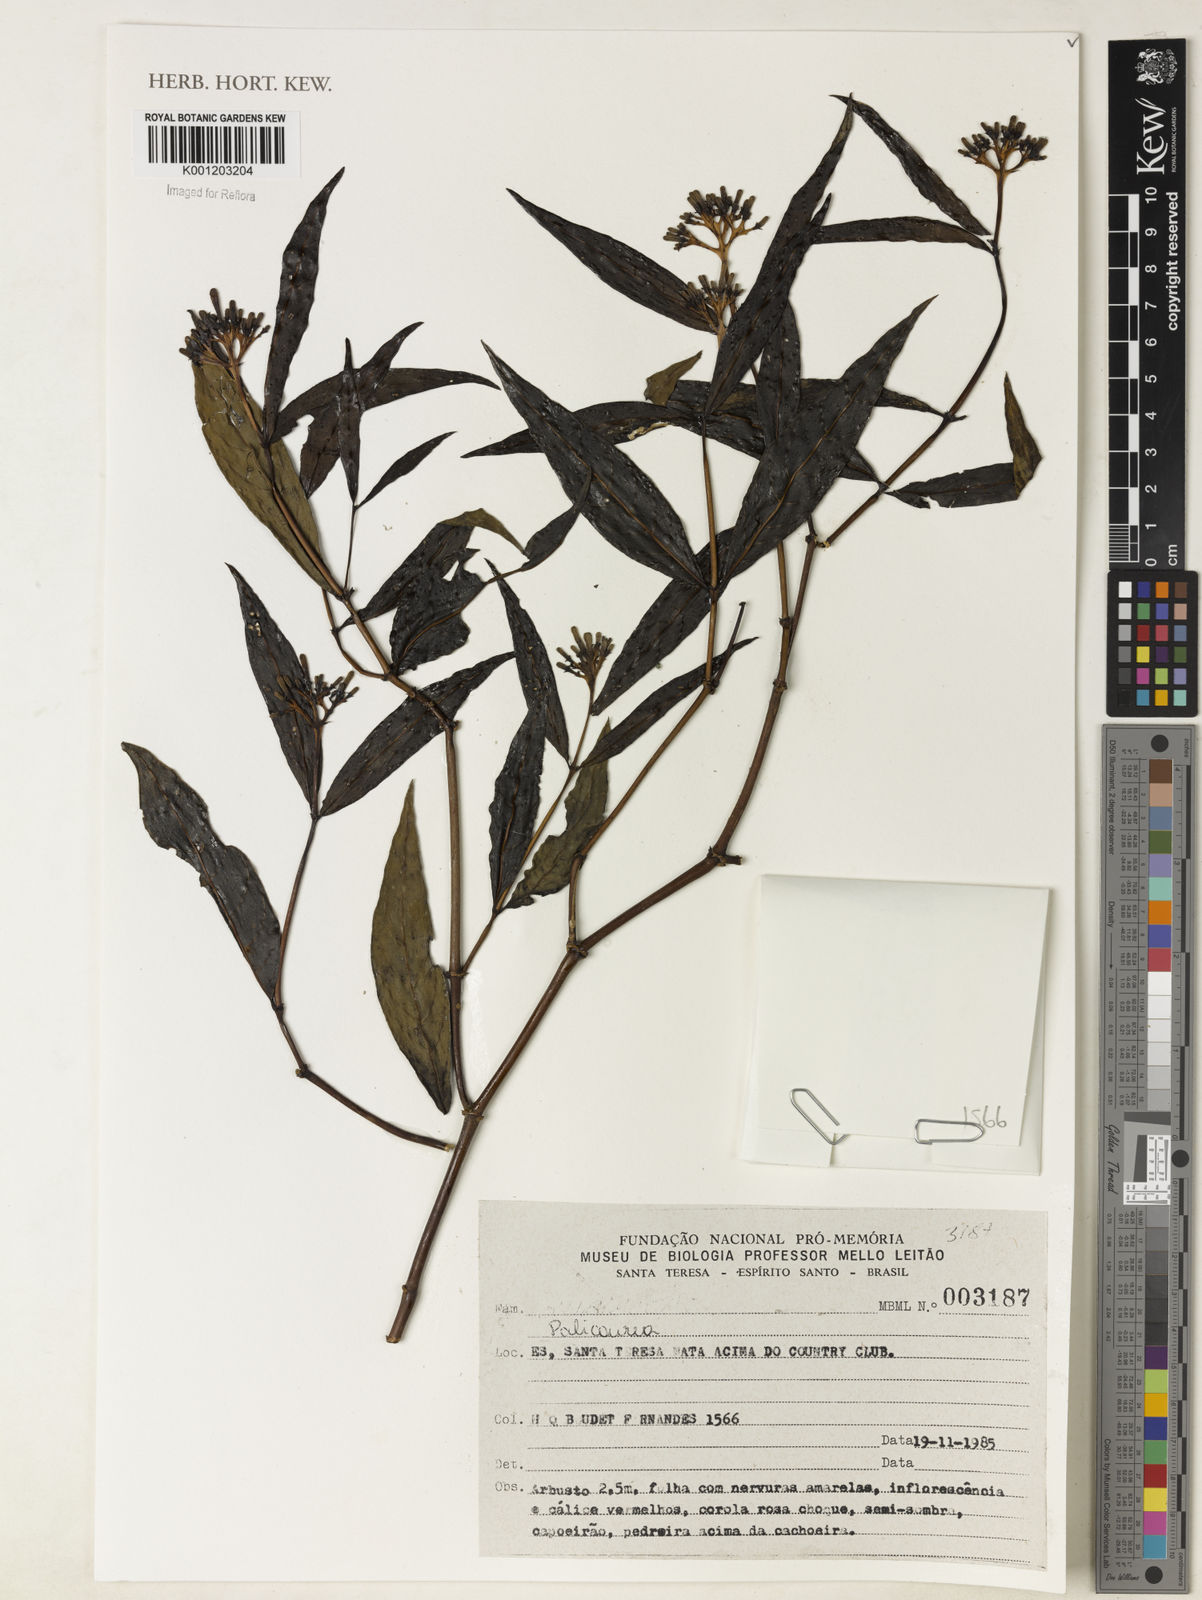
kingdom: Plantae
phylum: Tracheophyta
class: Magnoliopsida
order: Gentianales
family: Rubiaceae
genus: Palicourea
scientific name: Palicourea
